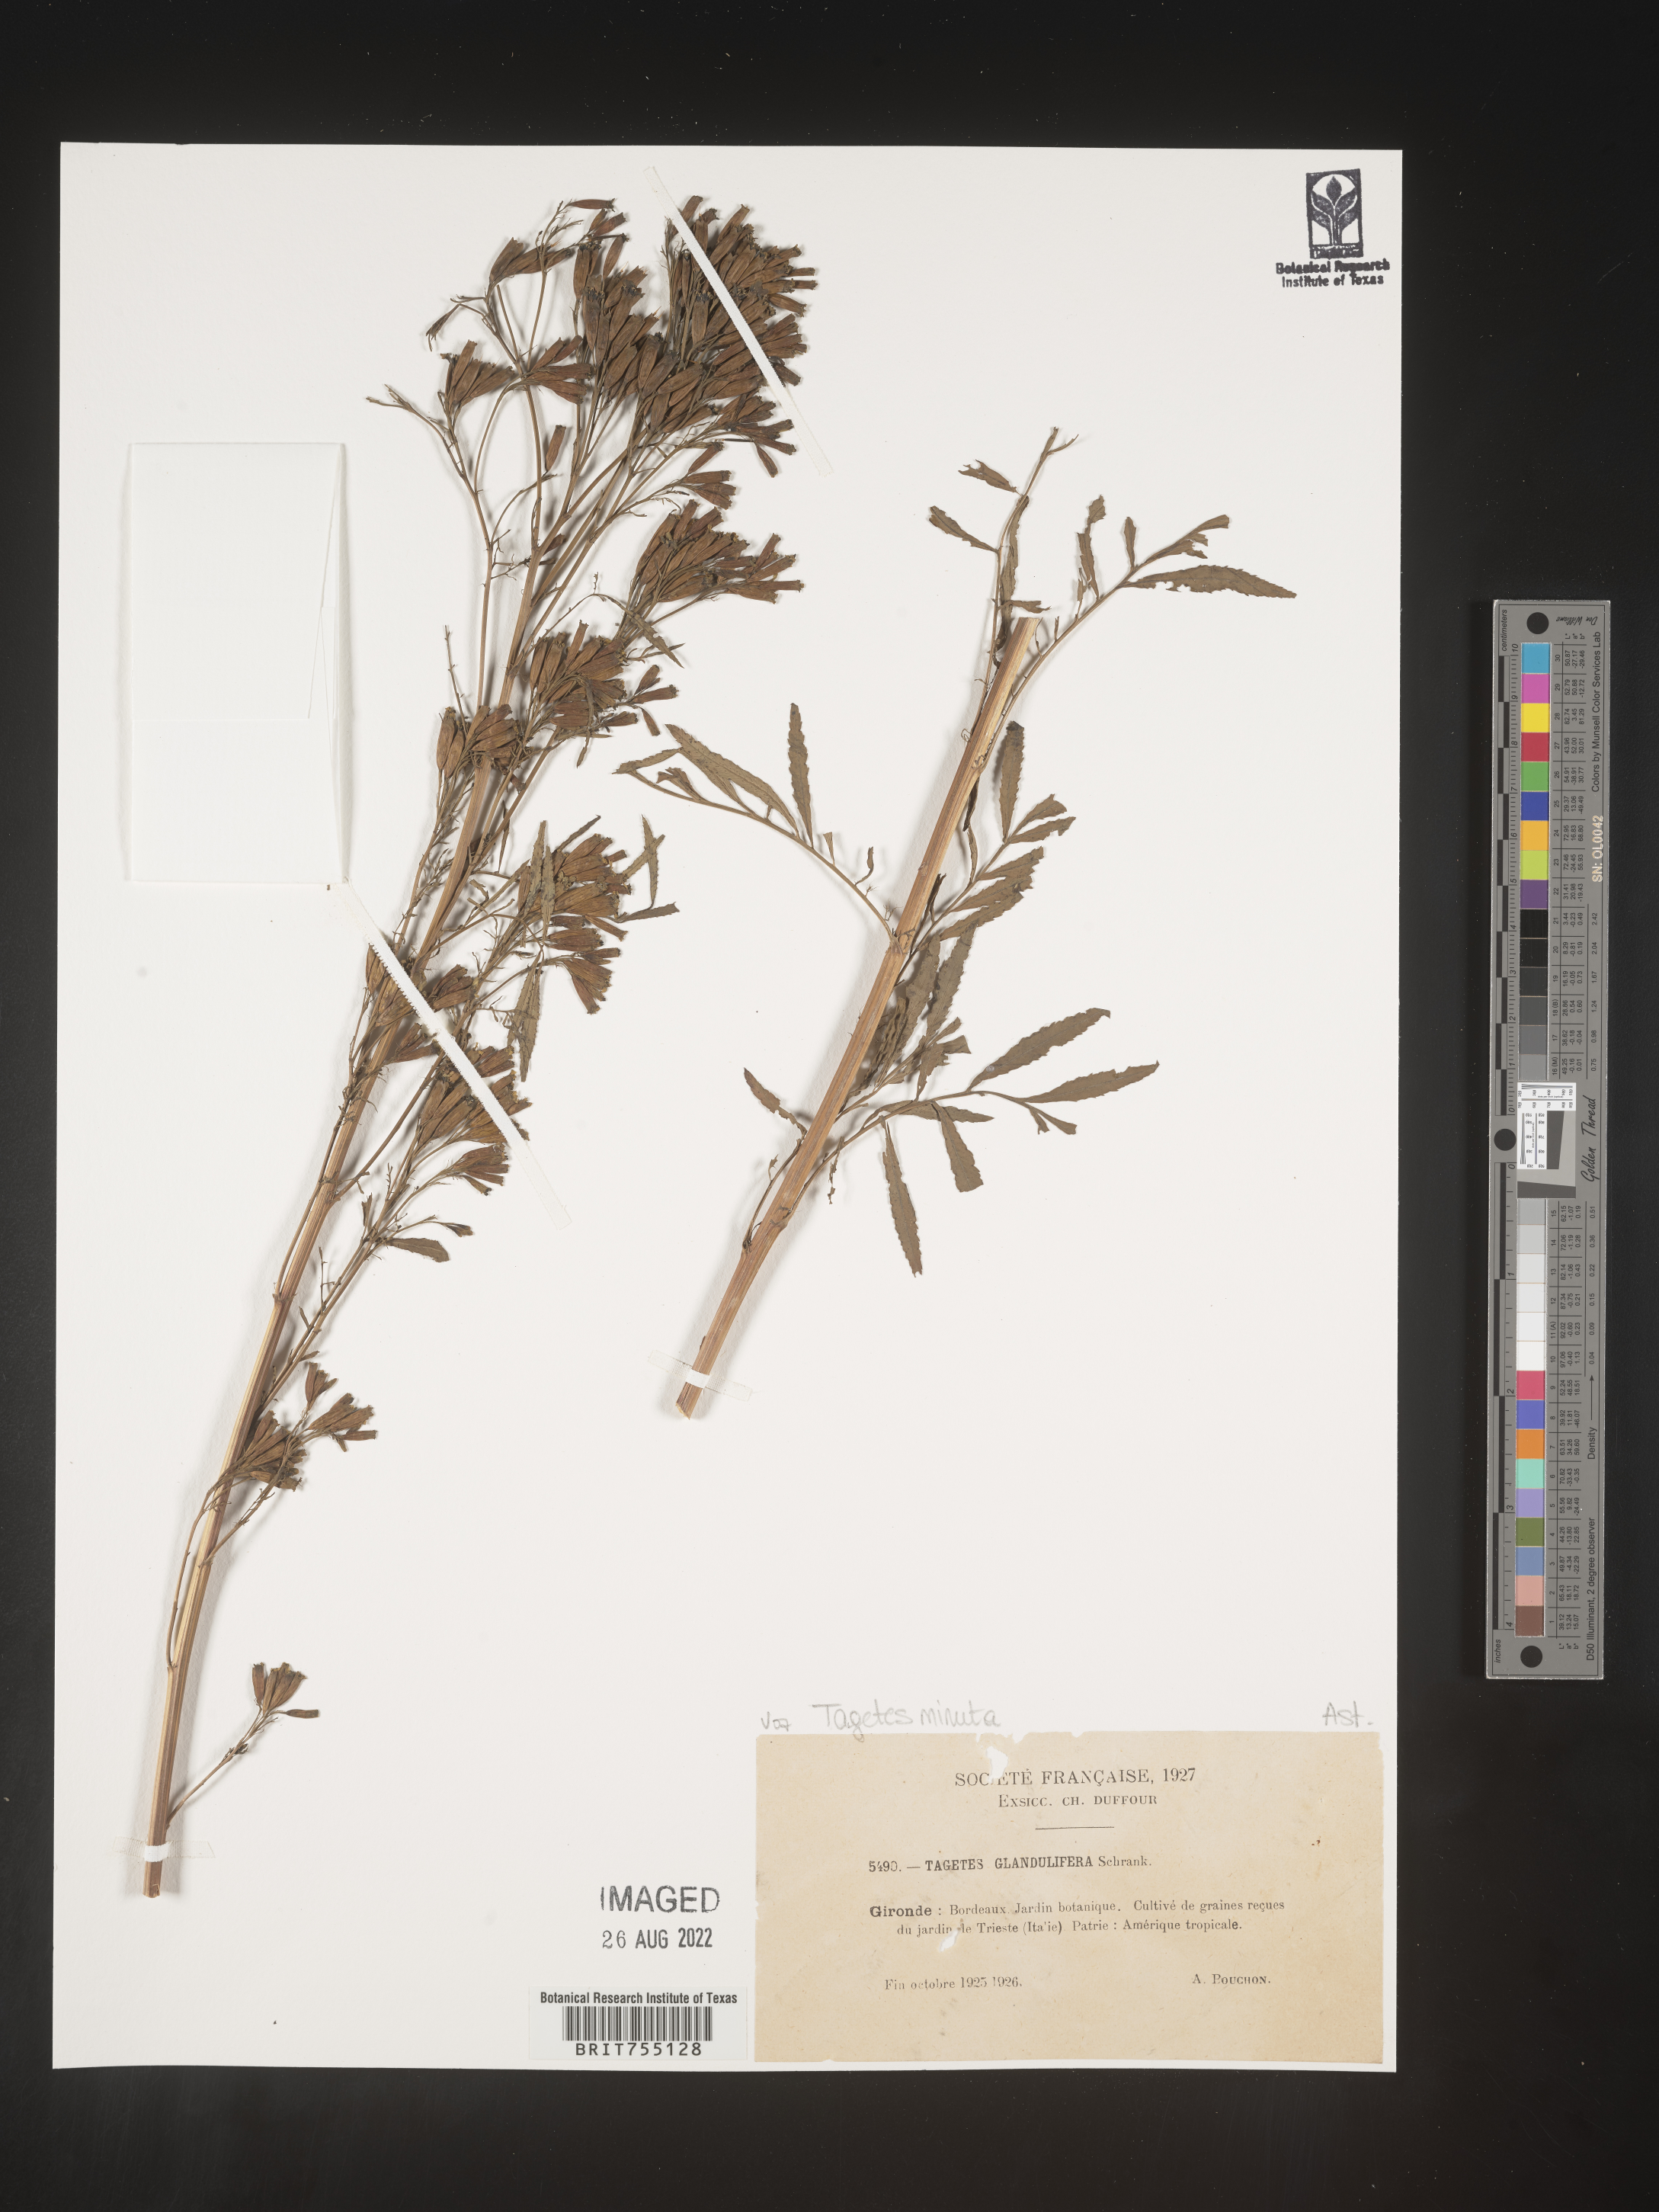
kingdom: Plantae
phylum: Tracheophyta
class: Magnoliopsida
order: Asterales
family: Asteraceae
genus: Tagetes
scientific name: Tagetes
